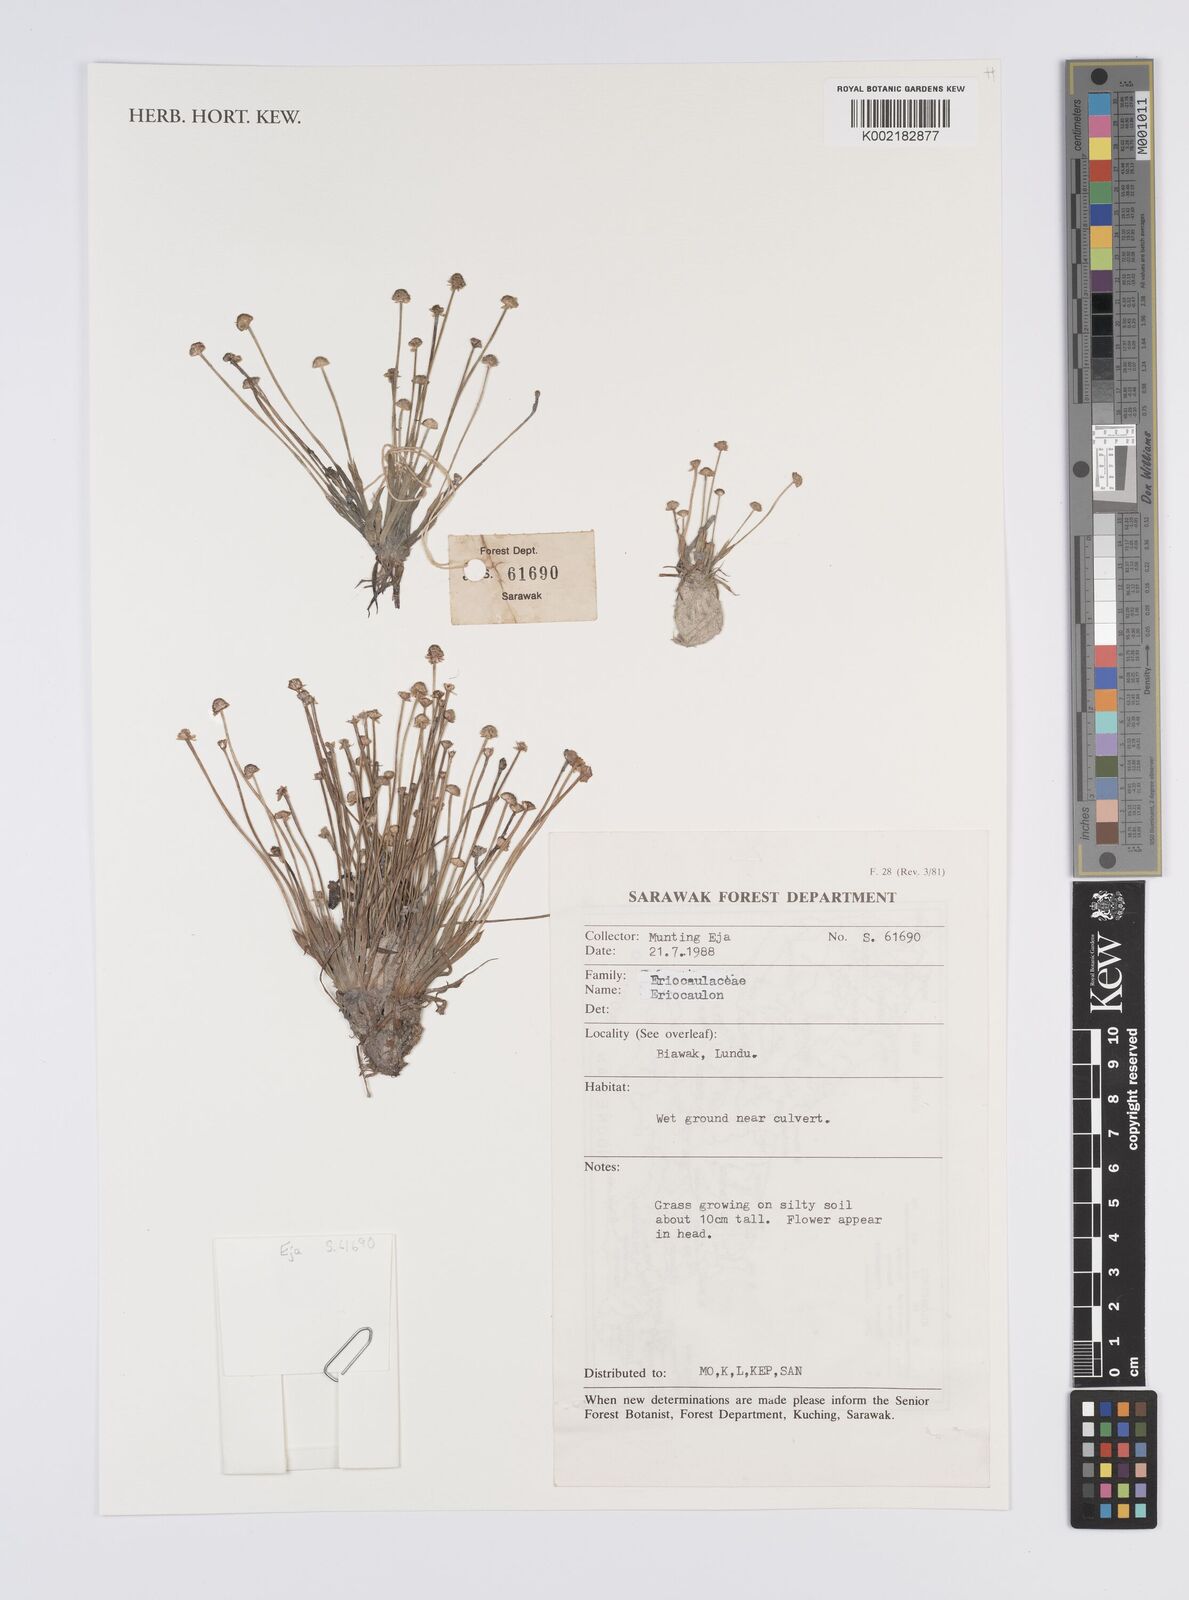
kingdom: Plantae
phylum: Tracheophyta
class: Liliopsida
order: Poales
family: Eriocaulaceae
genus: Eriocaulon
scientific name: Eriocaulon
